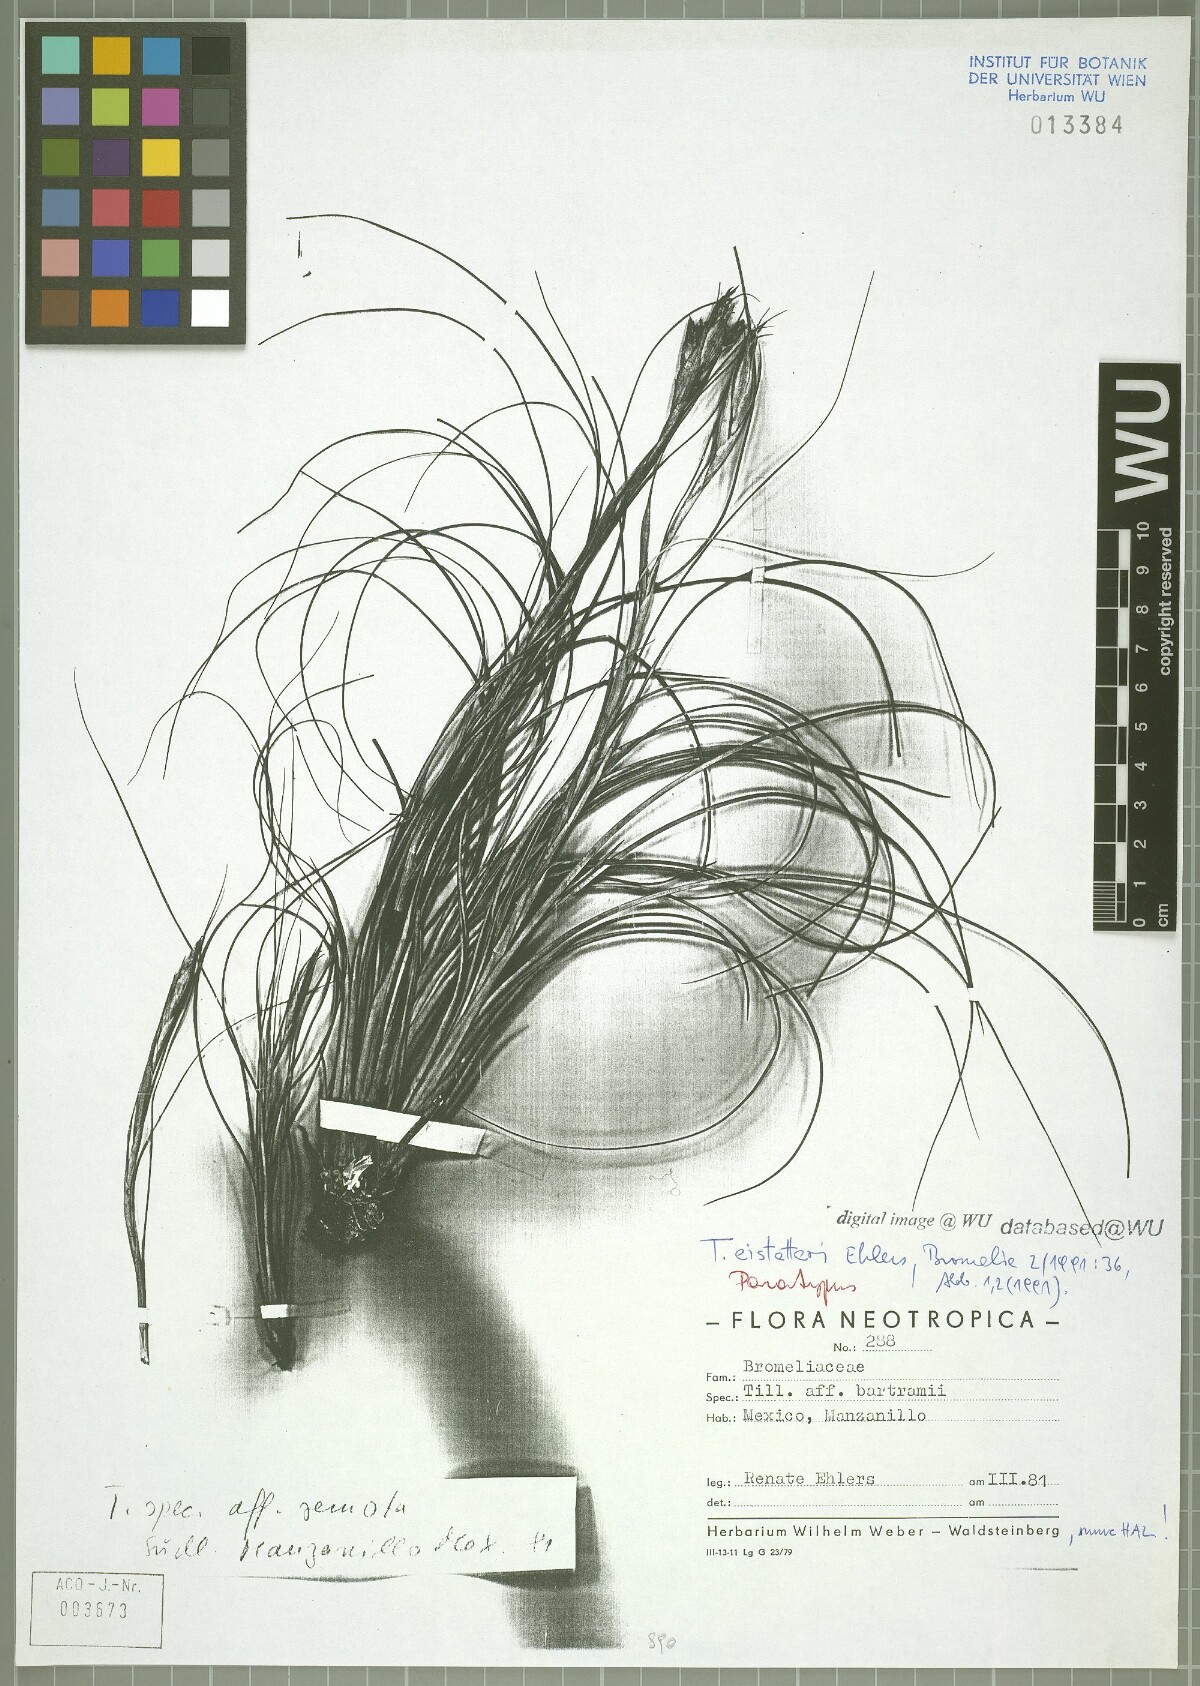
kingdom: Plantae
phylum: Tracheophyta
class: Liliopsida
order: Poales
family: Bromeliaceae
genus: Tillandsia
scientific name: Tillandsia eistetteri
